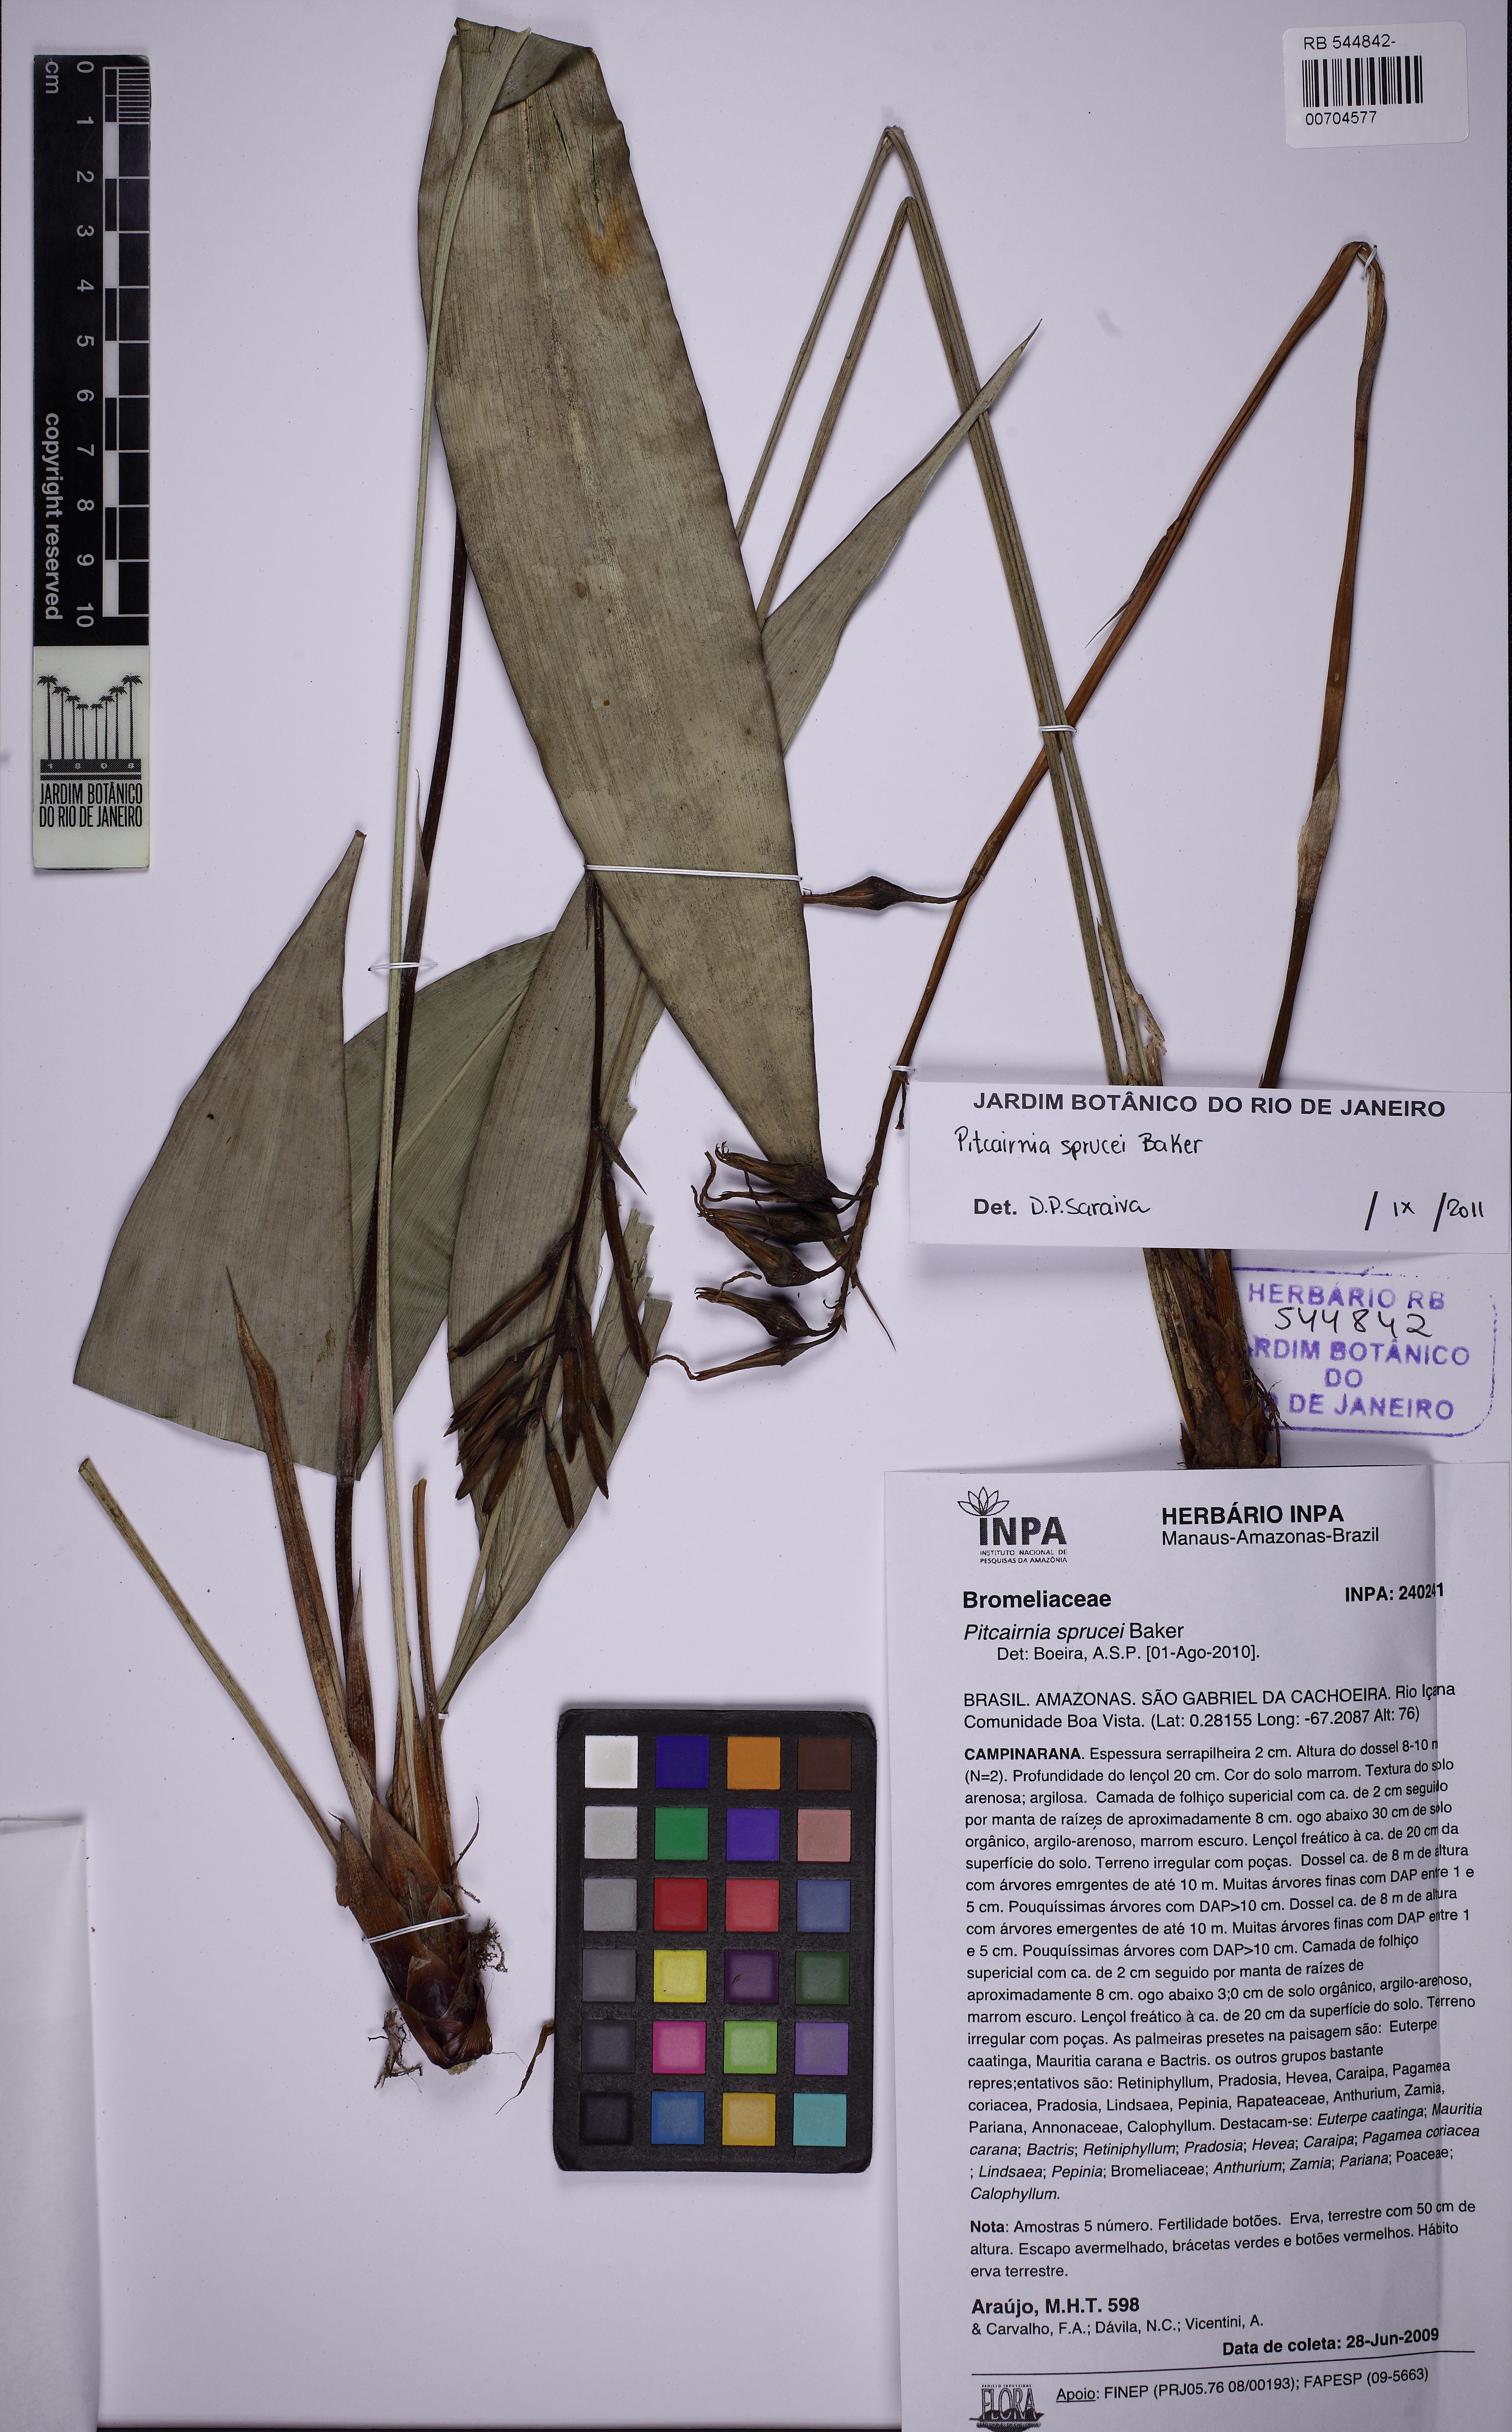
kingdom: Plantae
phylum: Tracheophyta
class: Liliopsida
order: Poales
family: Bromeliaceae
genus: Pitcairnia
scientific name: Pitcairnia sprucei
